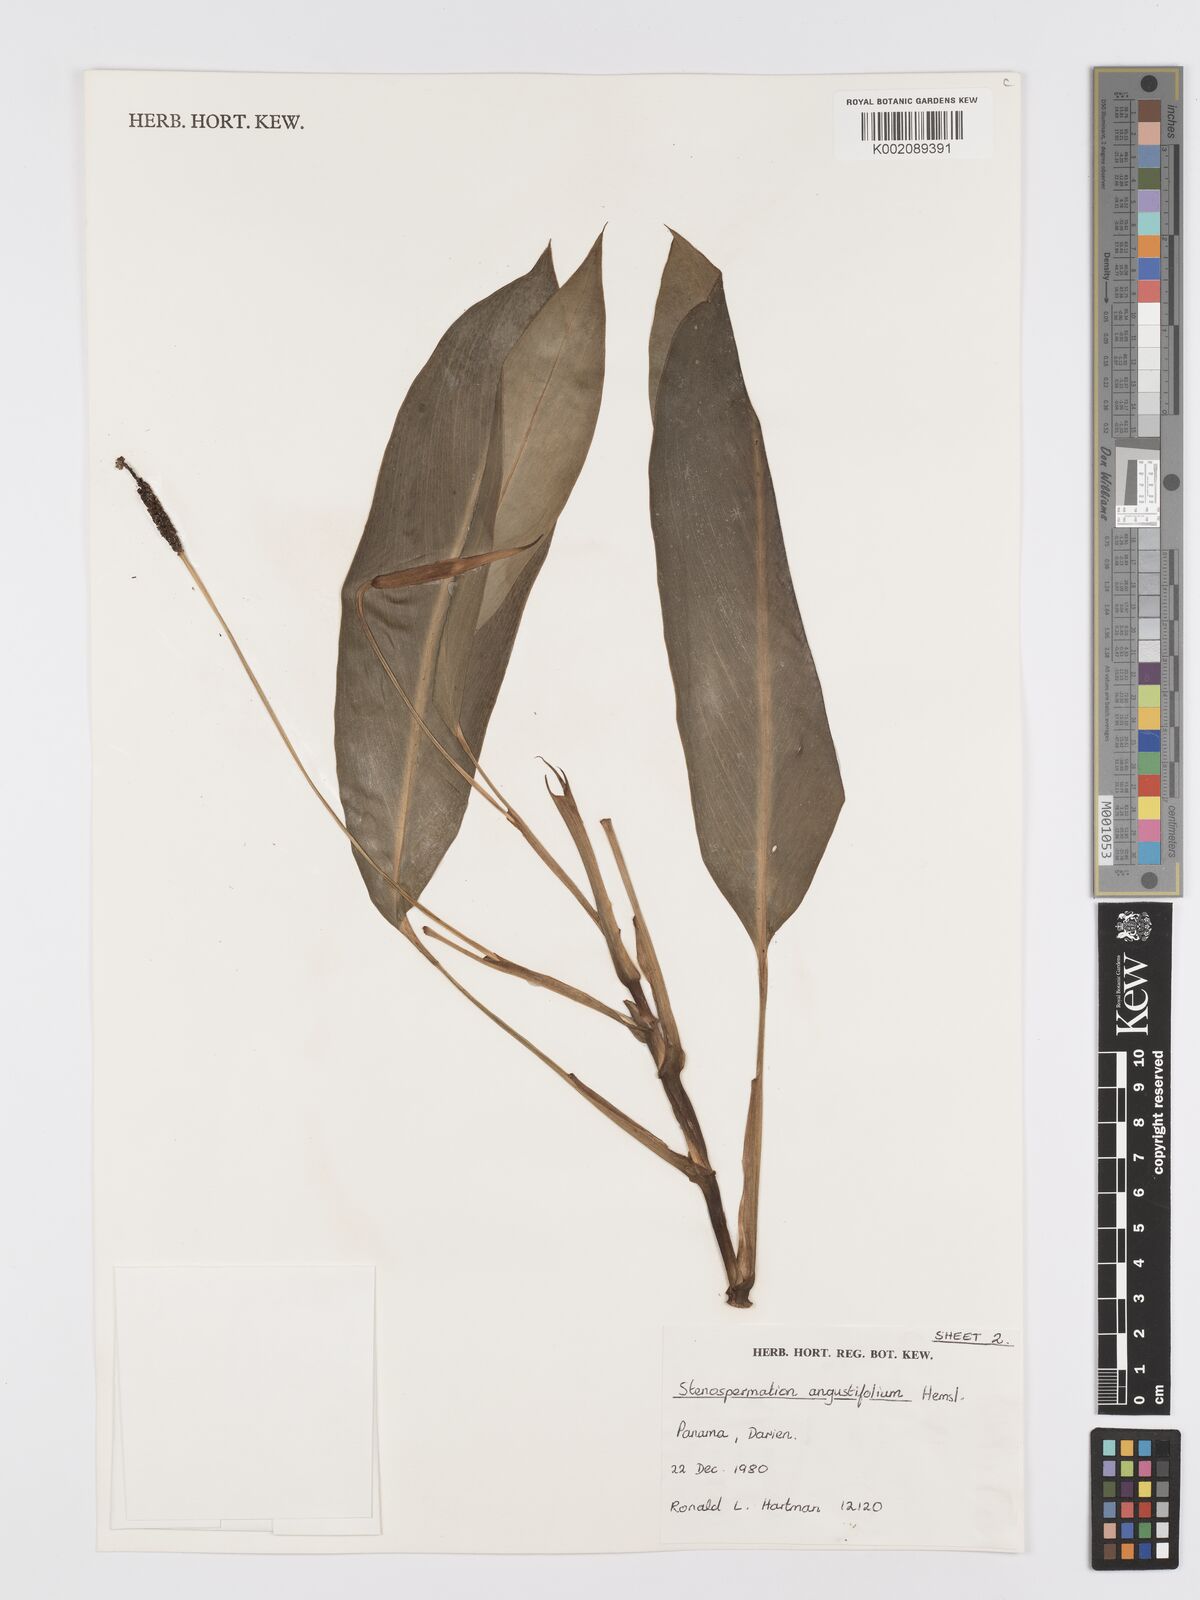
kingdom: Plantae
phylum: Tracheophyta
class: Liliopsida
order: Alismatales
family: Araceae
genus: Stenospermation
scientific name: Stenospermation angustifolium
